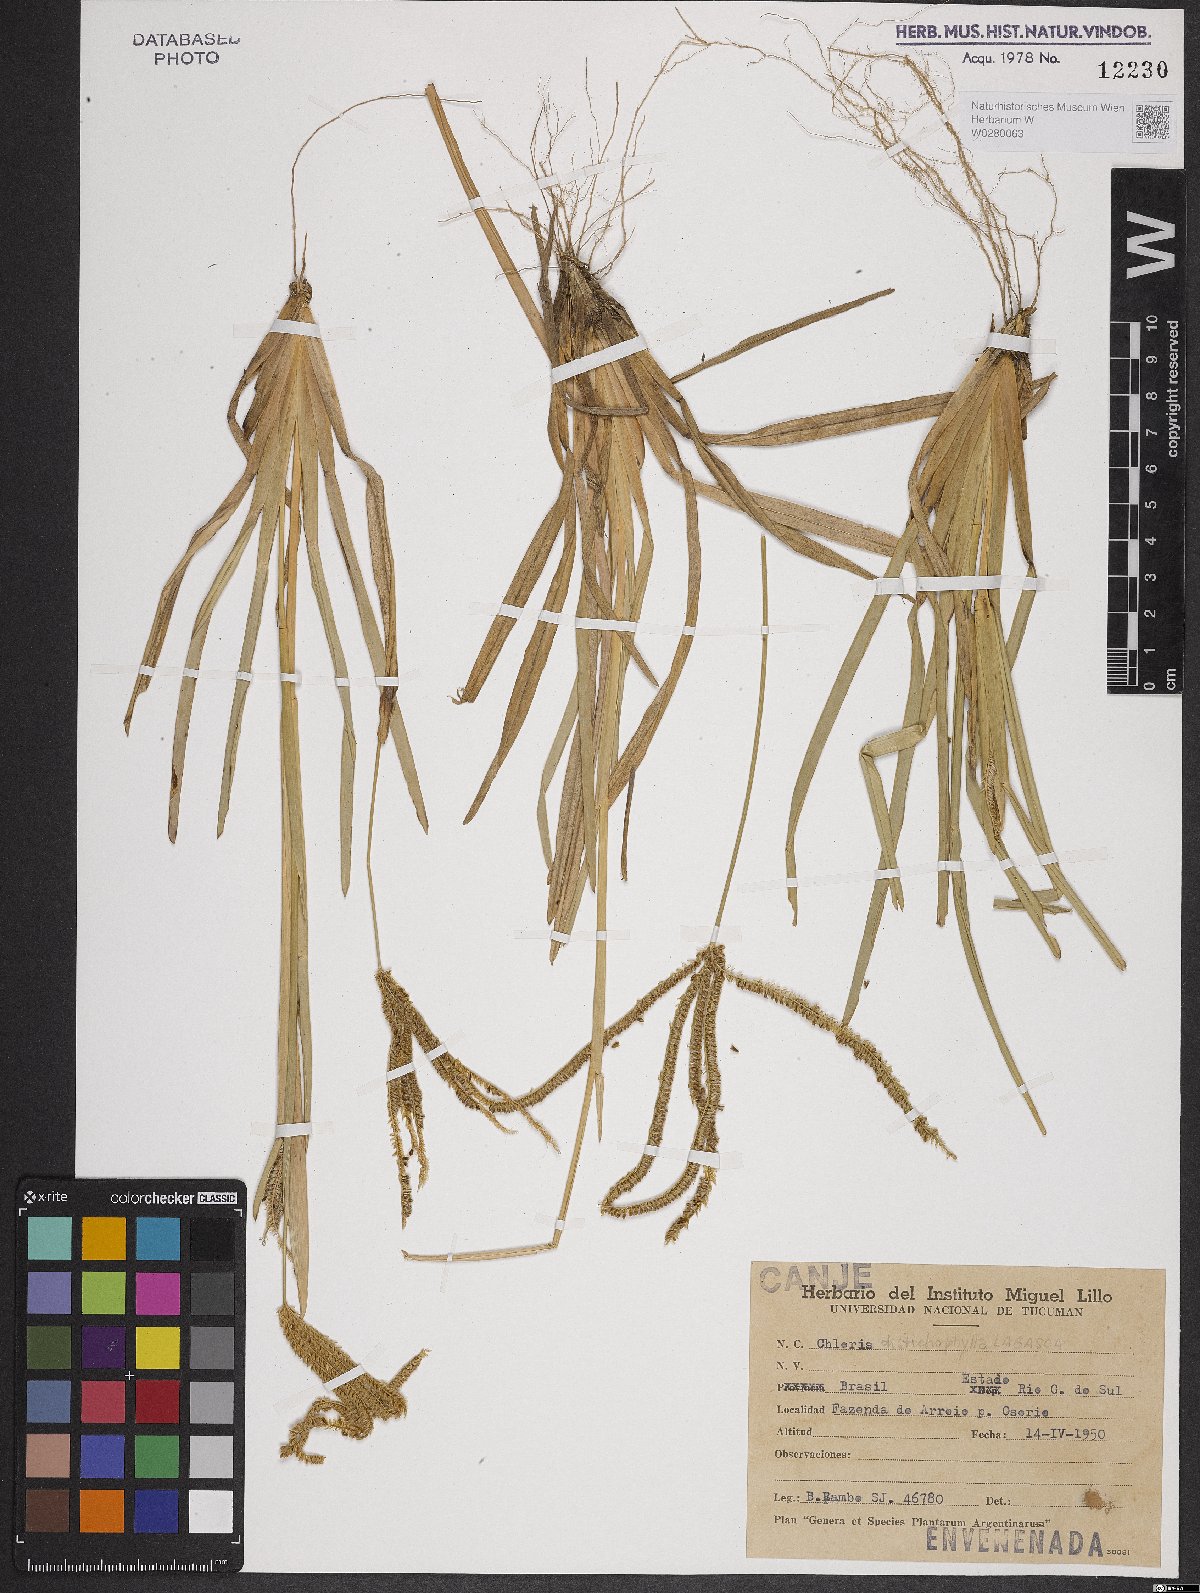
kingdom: Plantae
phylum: Tracheophyta
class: Liliopsida
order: Poales
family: Poaceae
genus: Eustachys
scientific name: Eustachys distichophylla
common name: Weeping fingergrass
